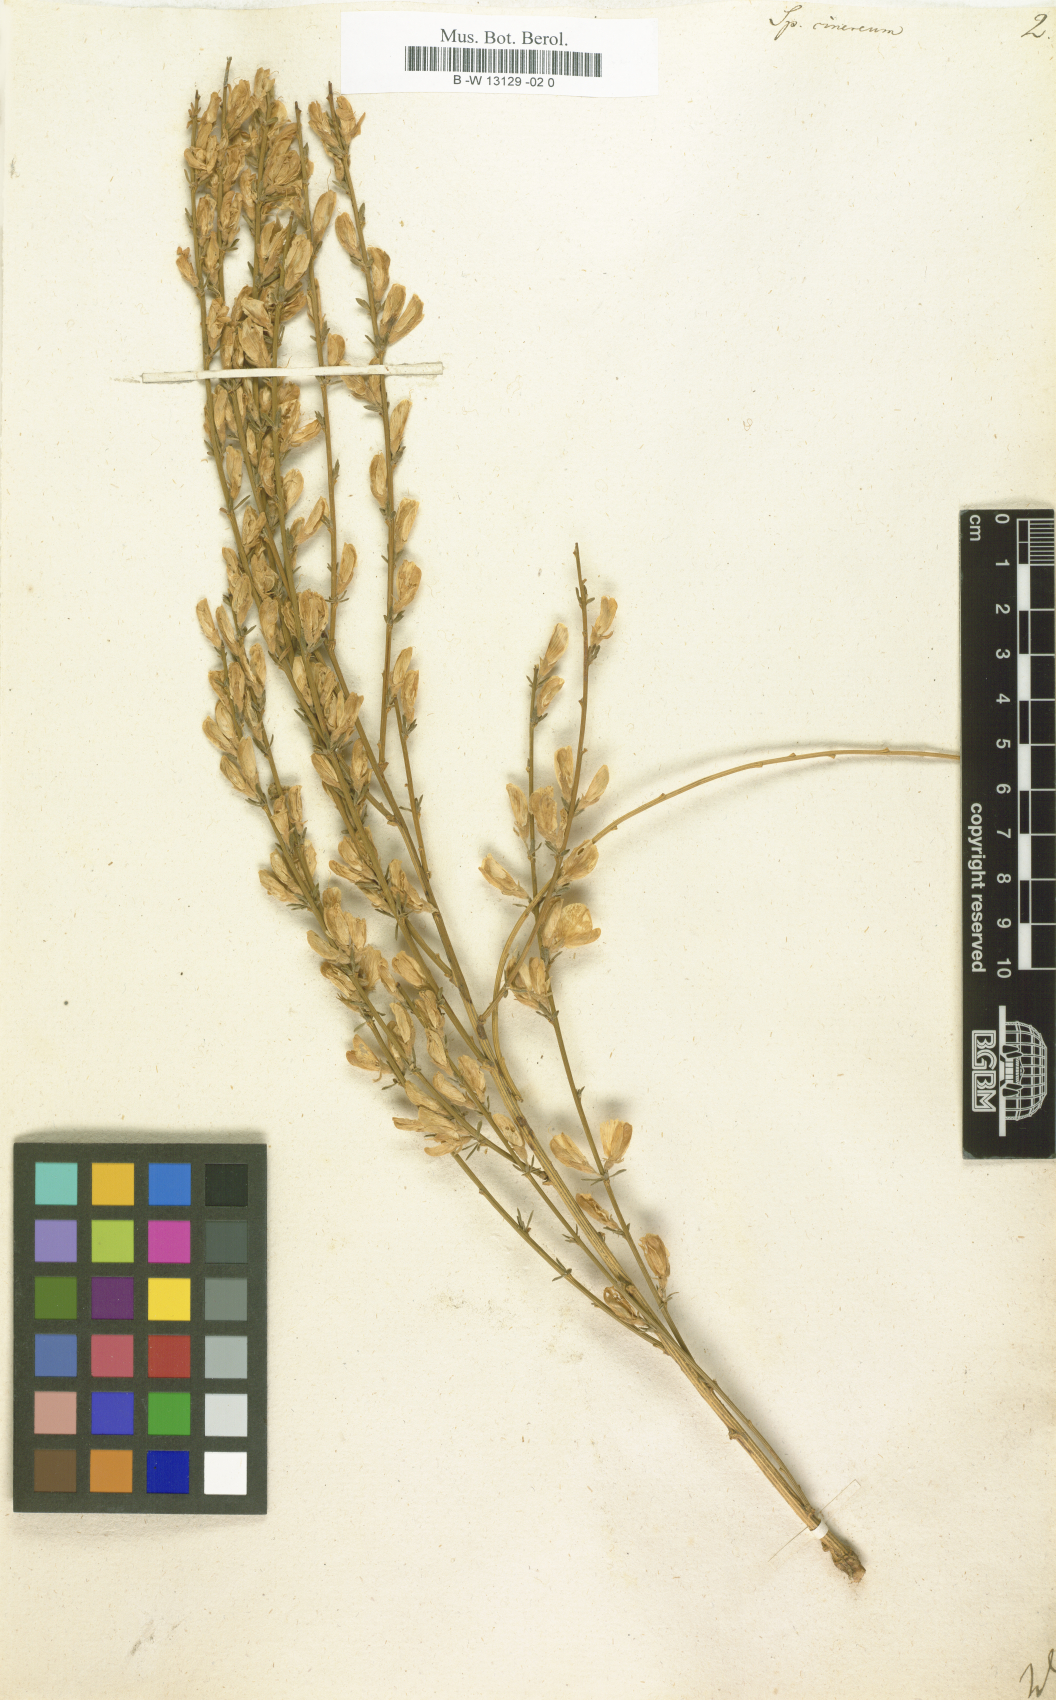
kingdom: Plantae
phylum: Tracheophyta
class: Magnoliopsida
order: Fabales
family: Fabaceae
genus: Genista
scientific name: Genista cinerea
